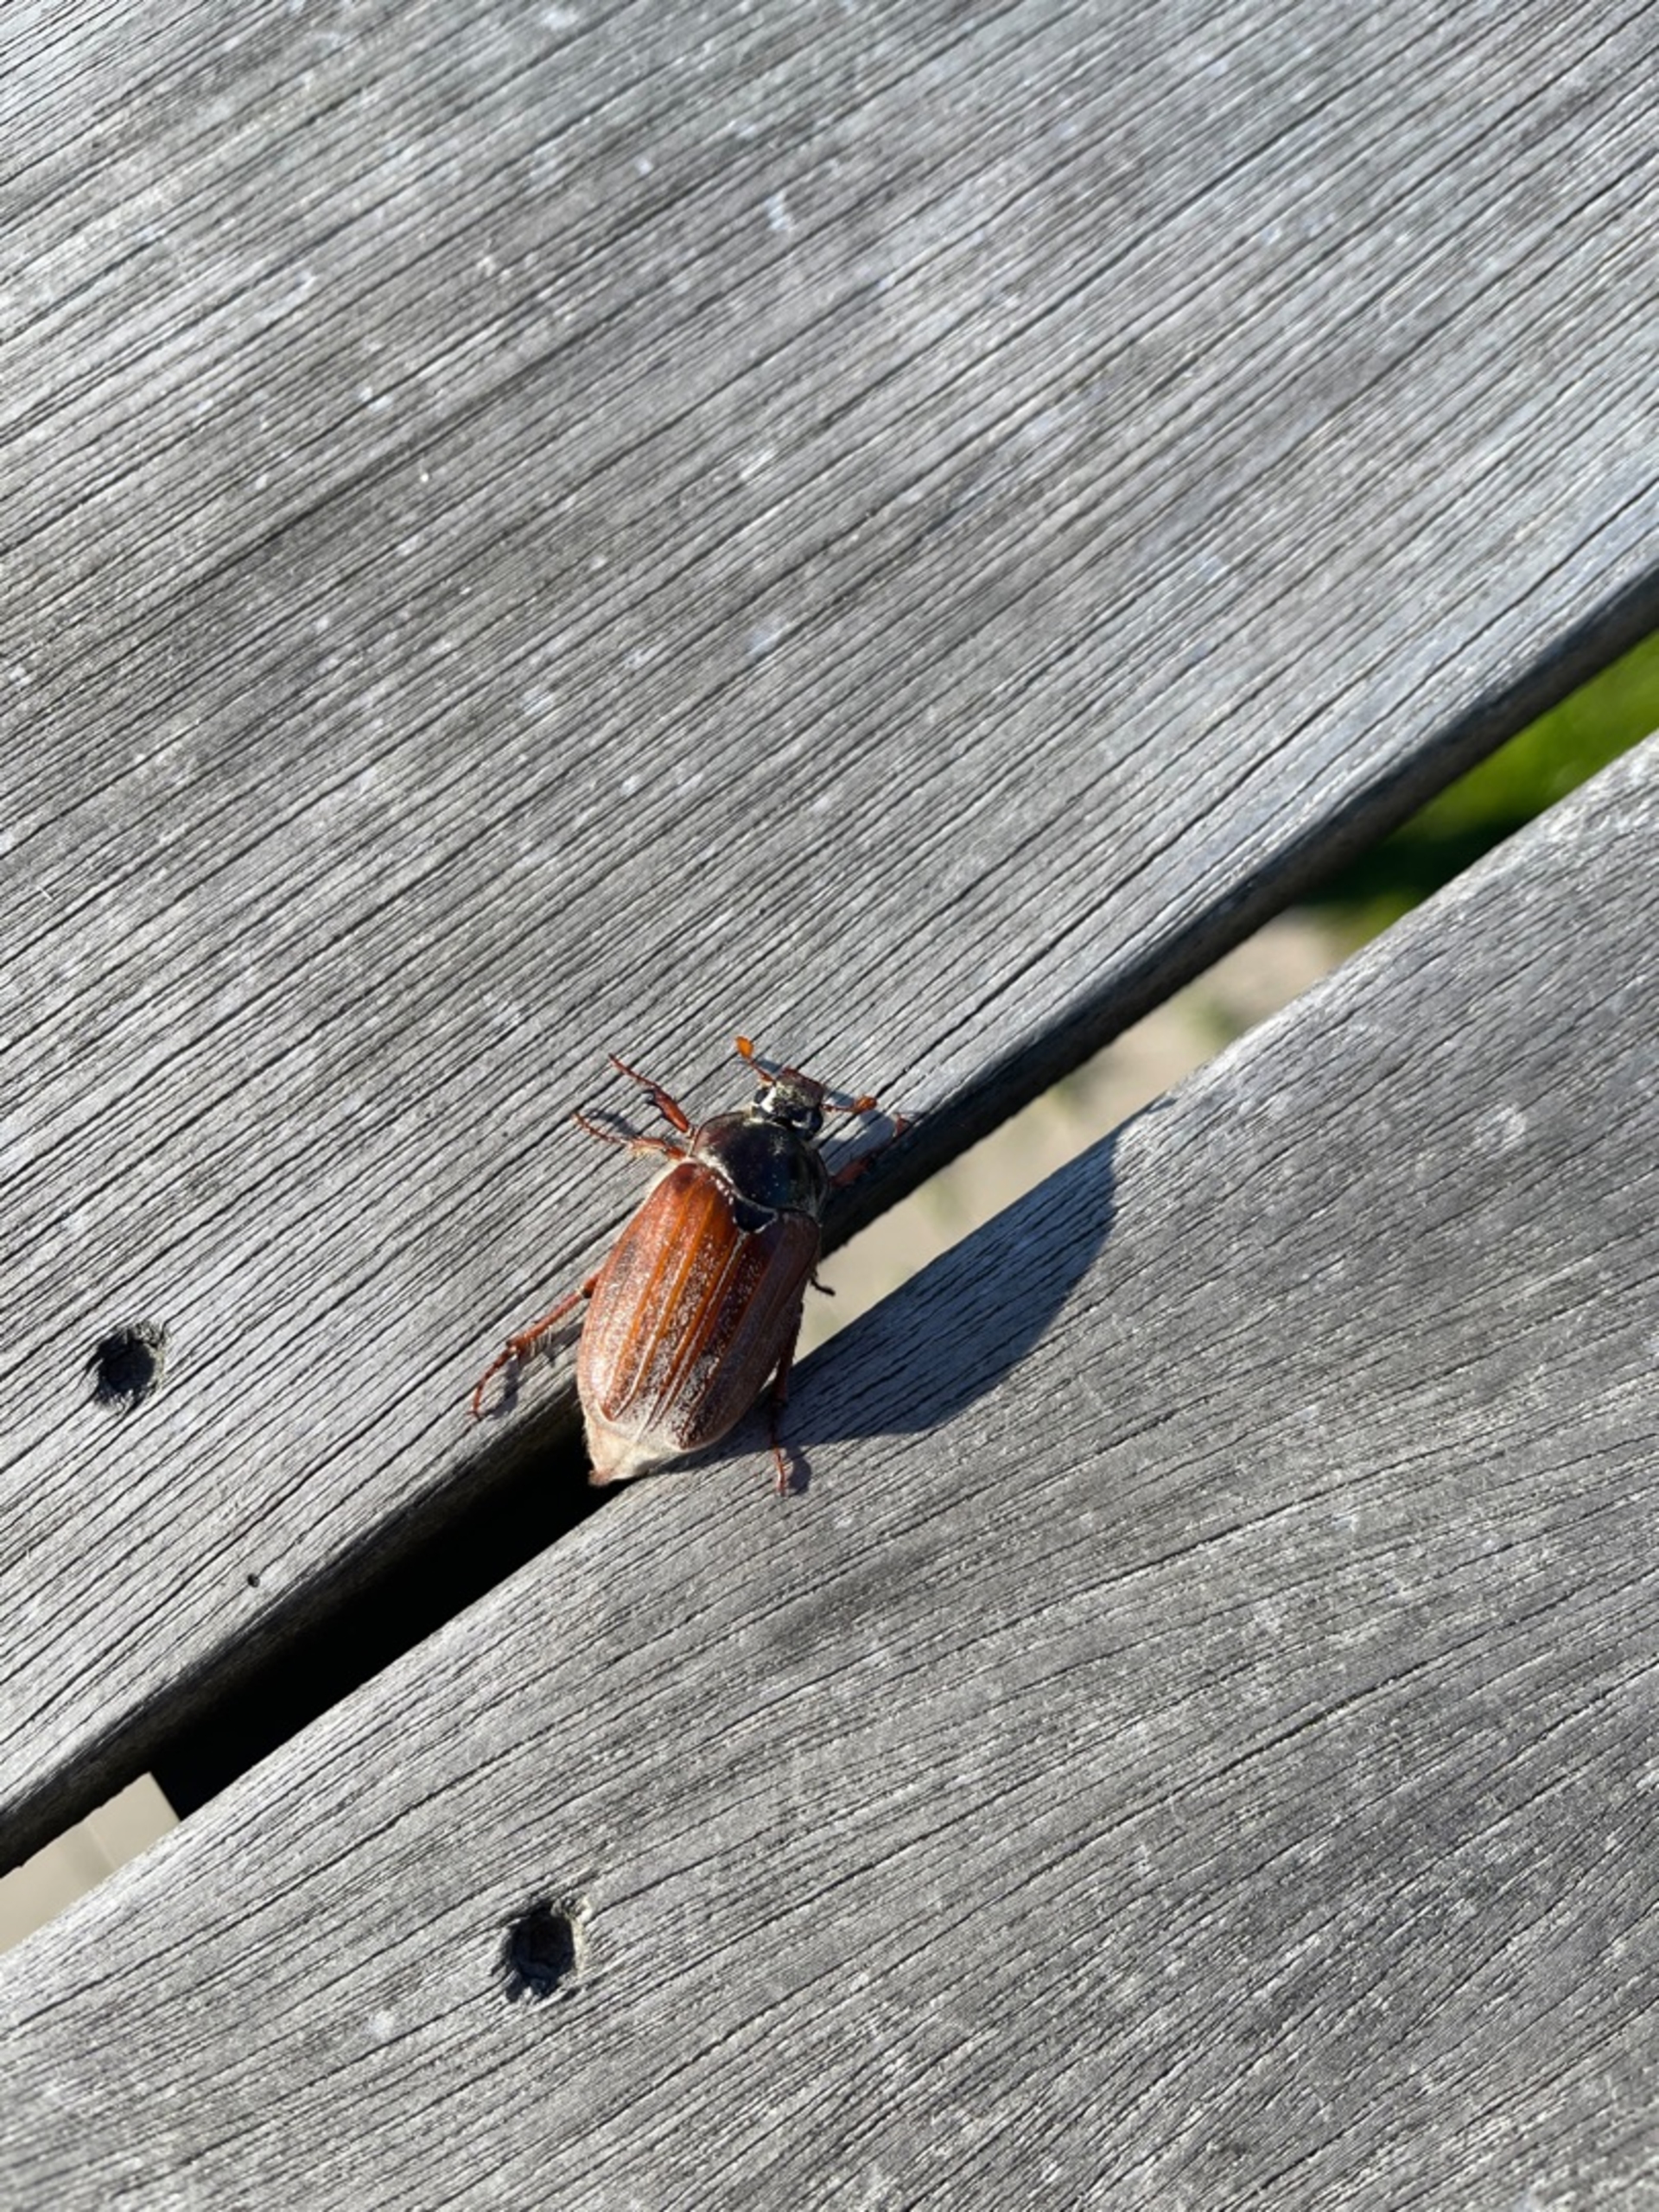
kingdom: Animalia
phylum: Arthropoda
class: Insecta
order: Coleoptera
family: Scarabaeidae
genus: Melolontha
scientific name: Melolontha melolontha
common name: Almindelig oldenborre
